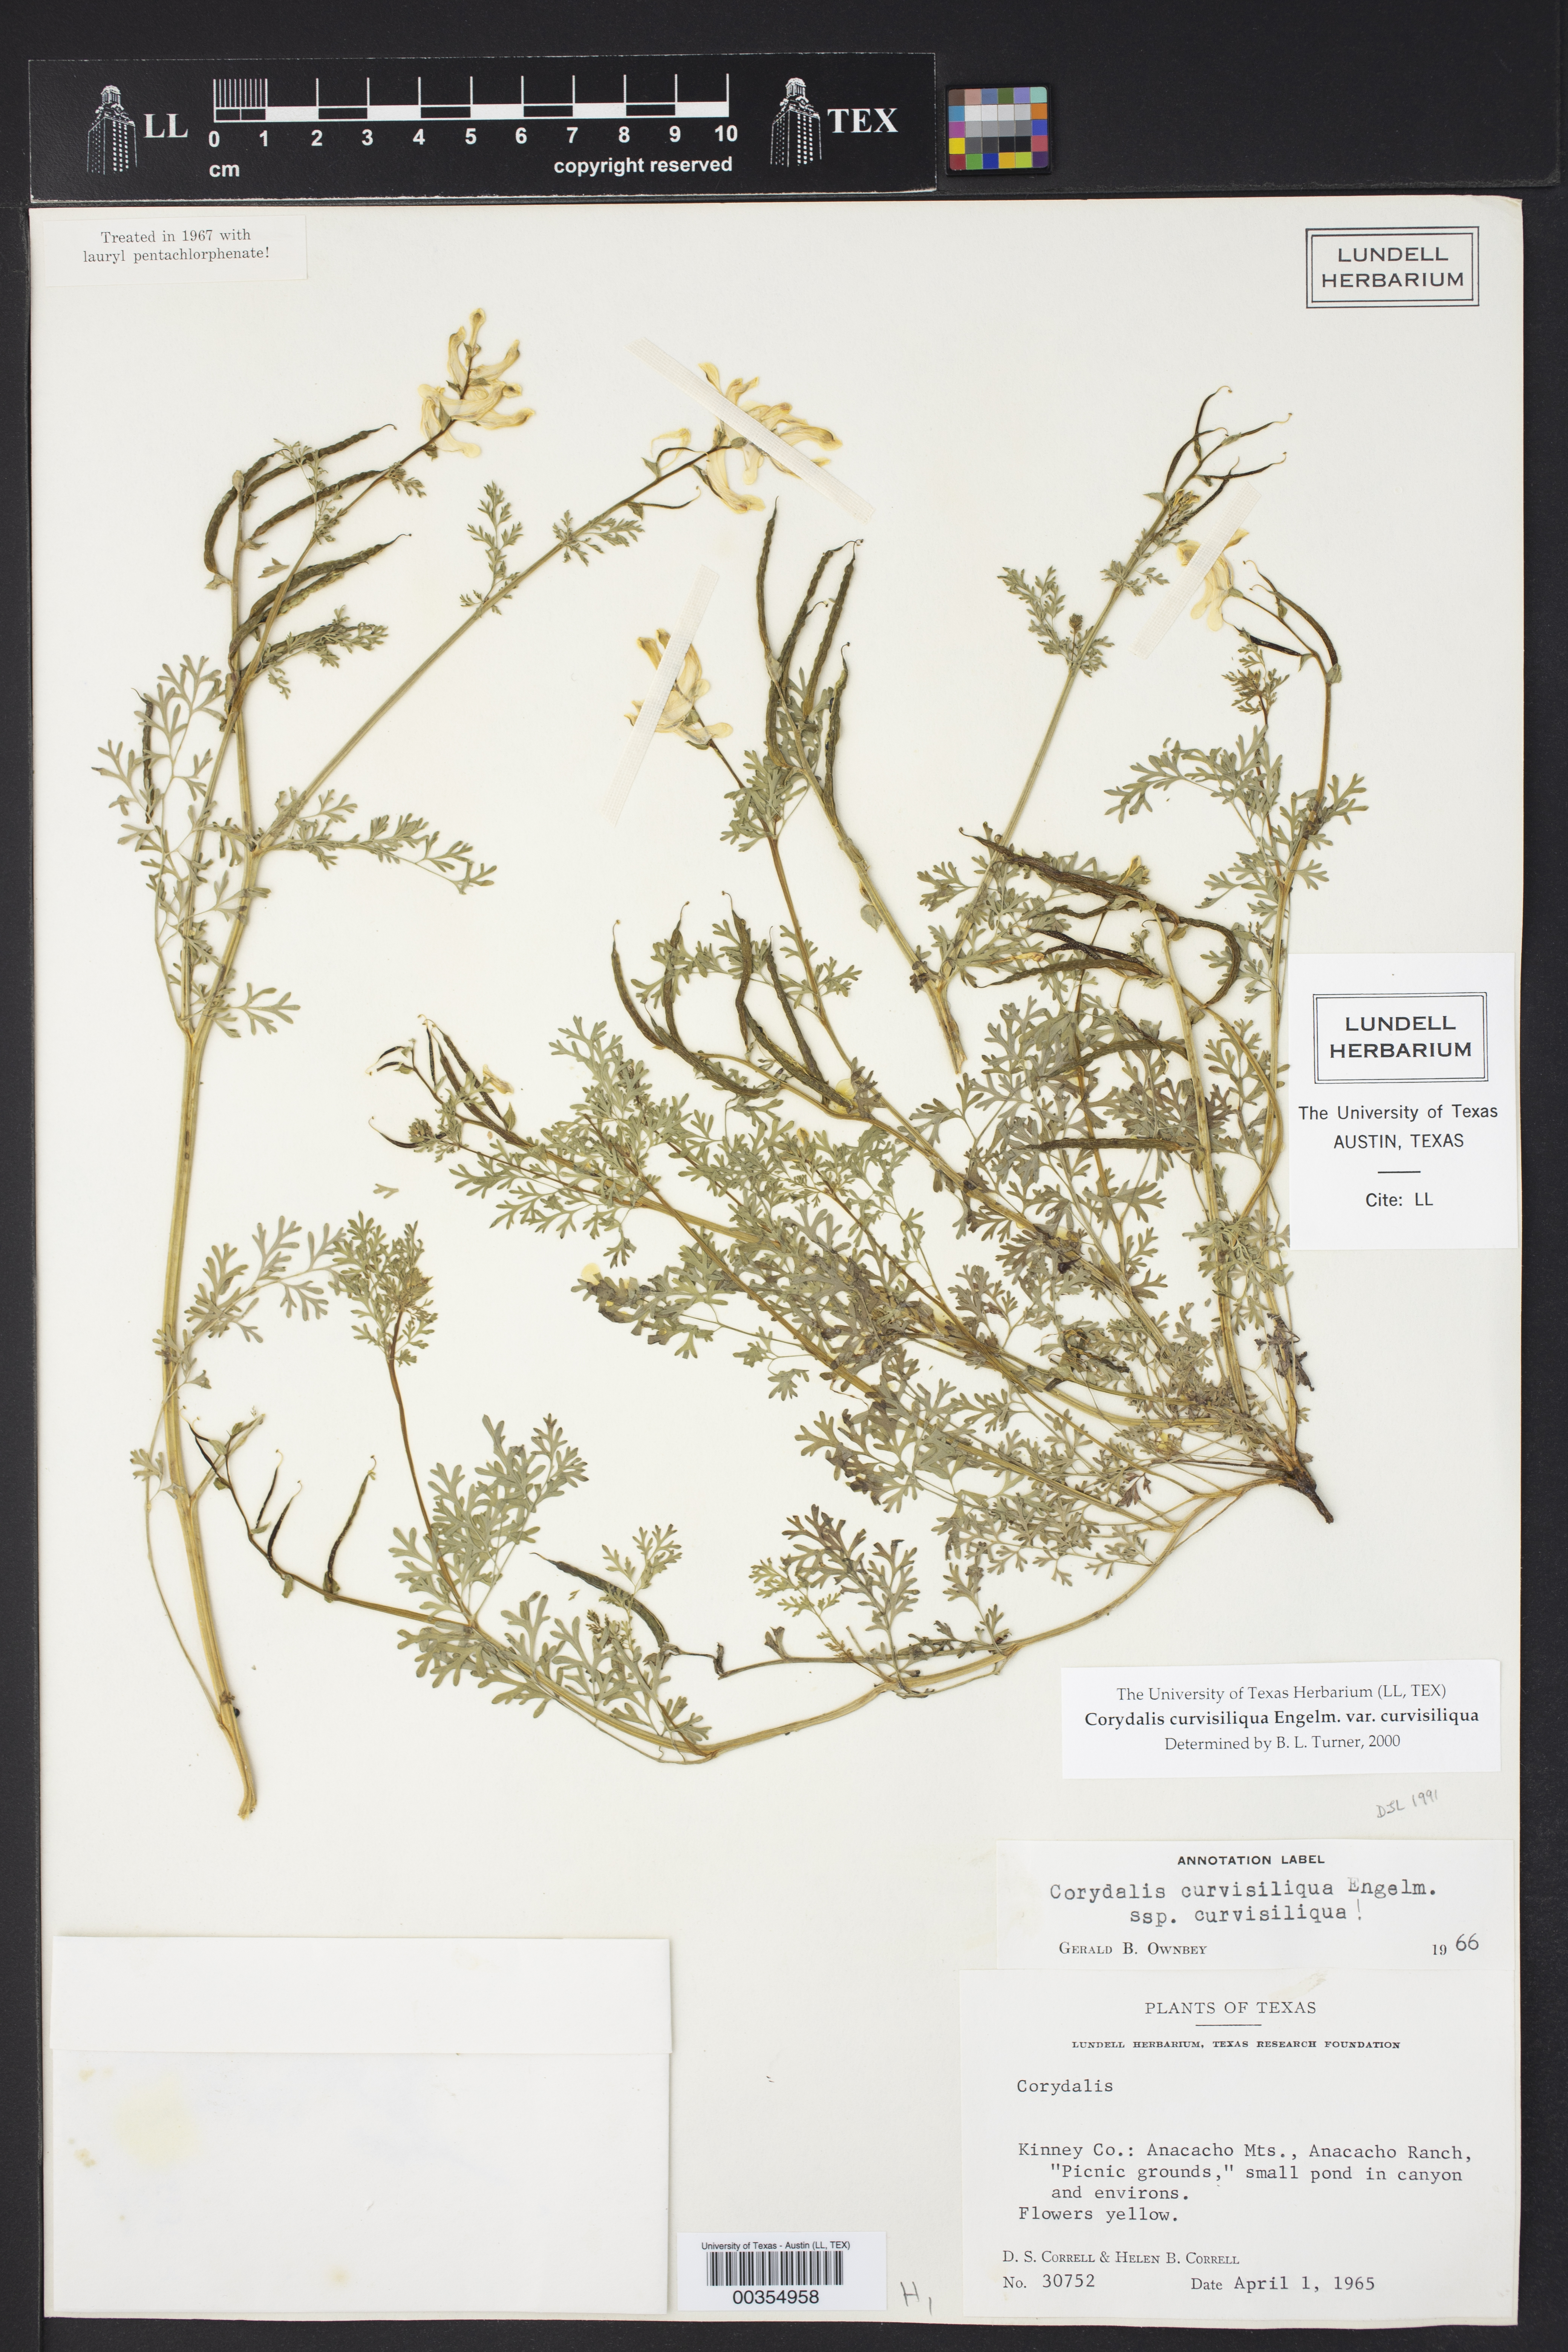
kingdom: Plantae
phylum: Tracheophyta
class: Magnoliopsida
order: Ranunculales
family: Papaveraceae
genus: Corydalis
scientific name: Corydalis curvisiliqua
